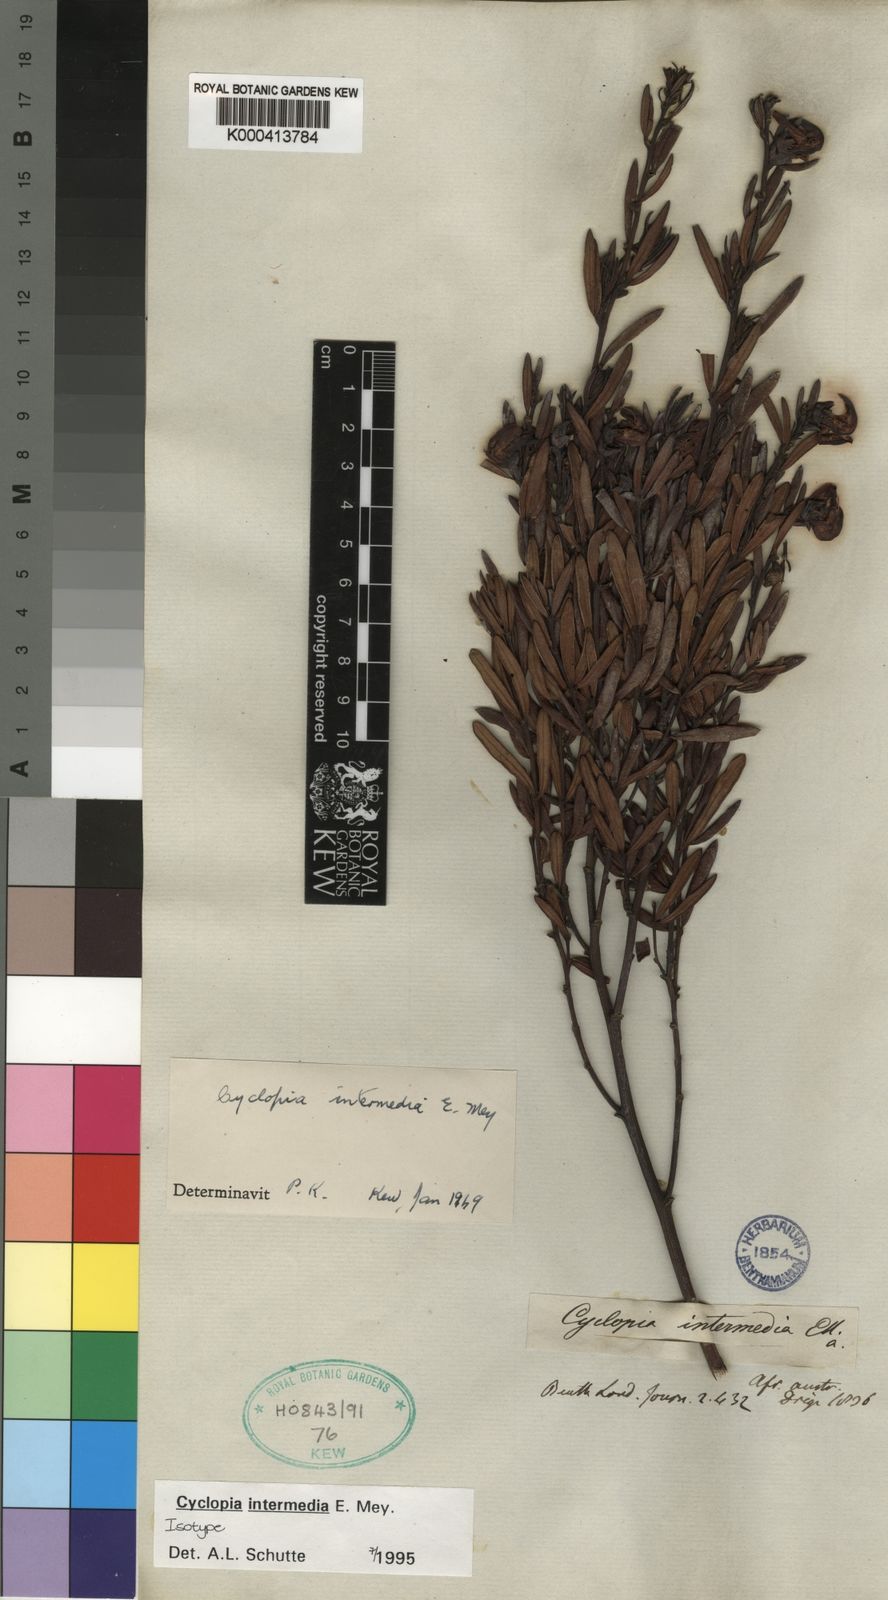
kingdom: Plantae
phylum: Tracheophyta
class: Magnoliopsida
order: Fabales
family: Fabaceae
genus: Cyclopia
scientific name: Cyclopia intermedia
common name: Mountain tea
